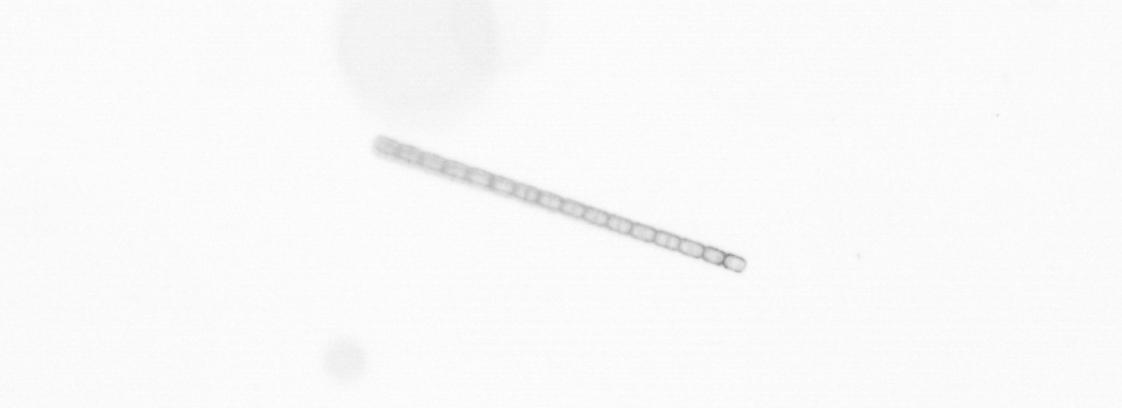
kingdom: Chromista
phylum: Ochrophyta
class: Bacillariophyceae
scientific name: Bacillariophyceae
